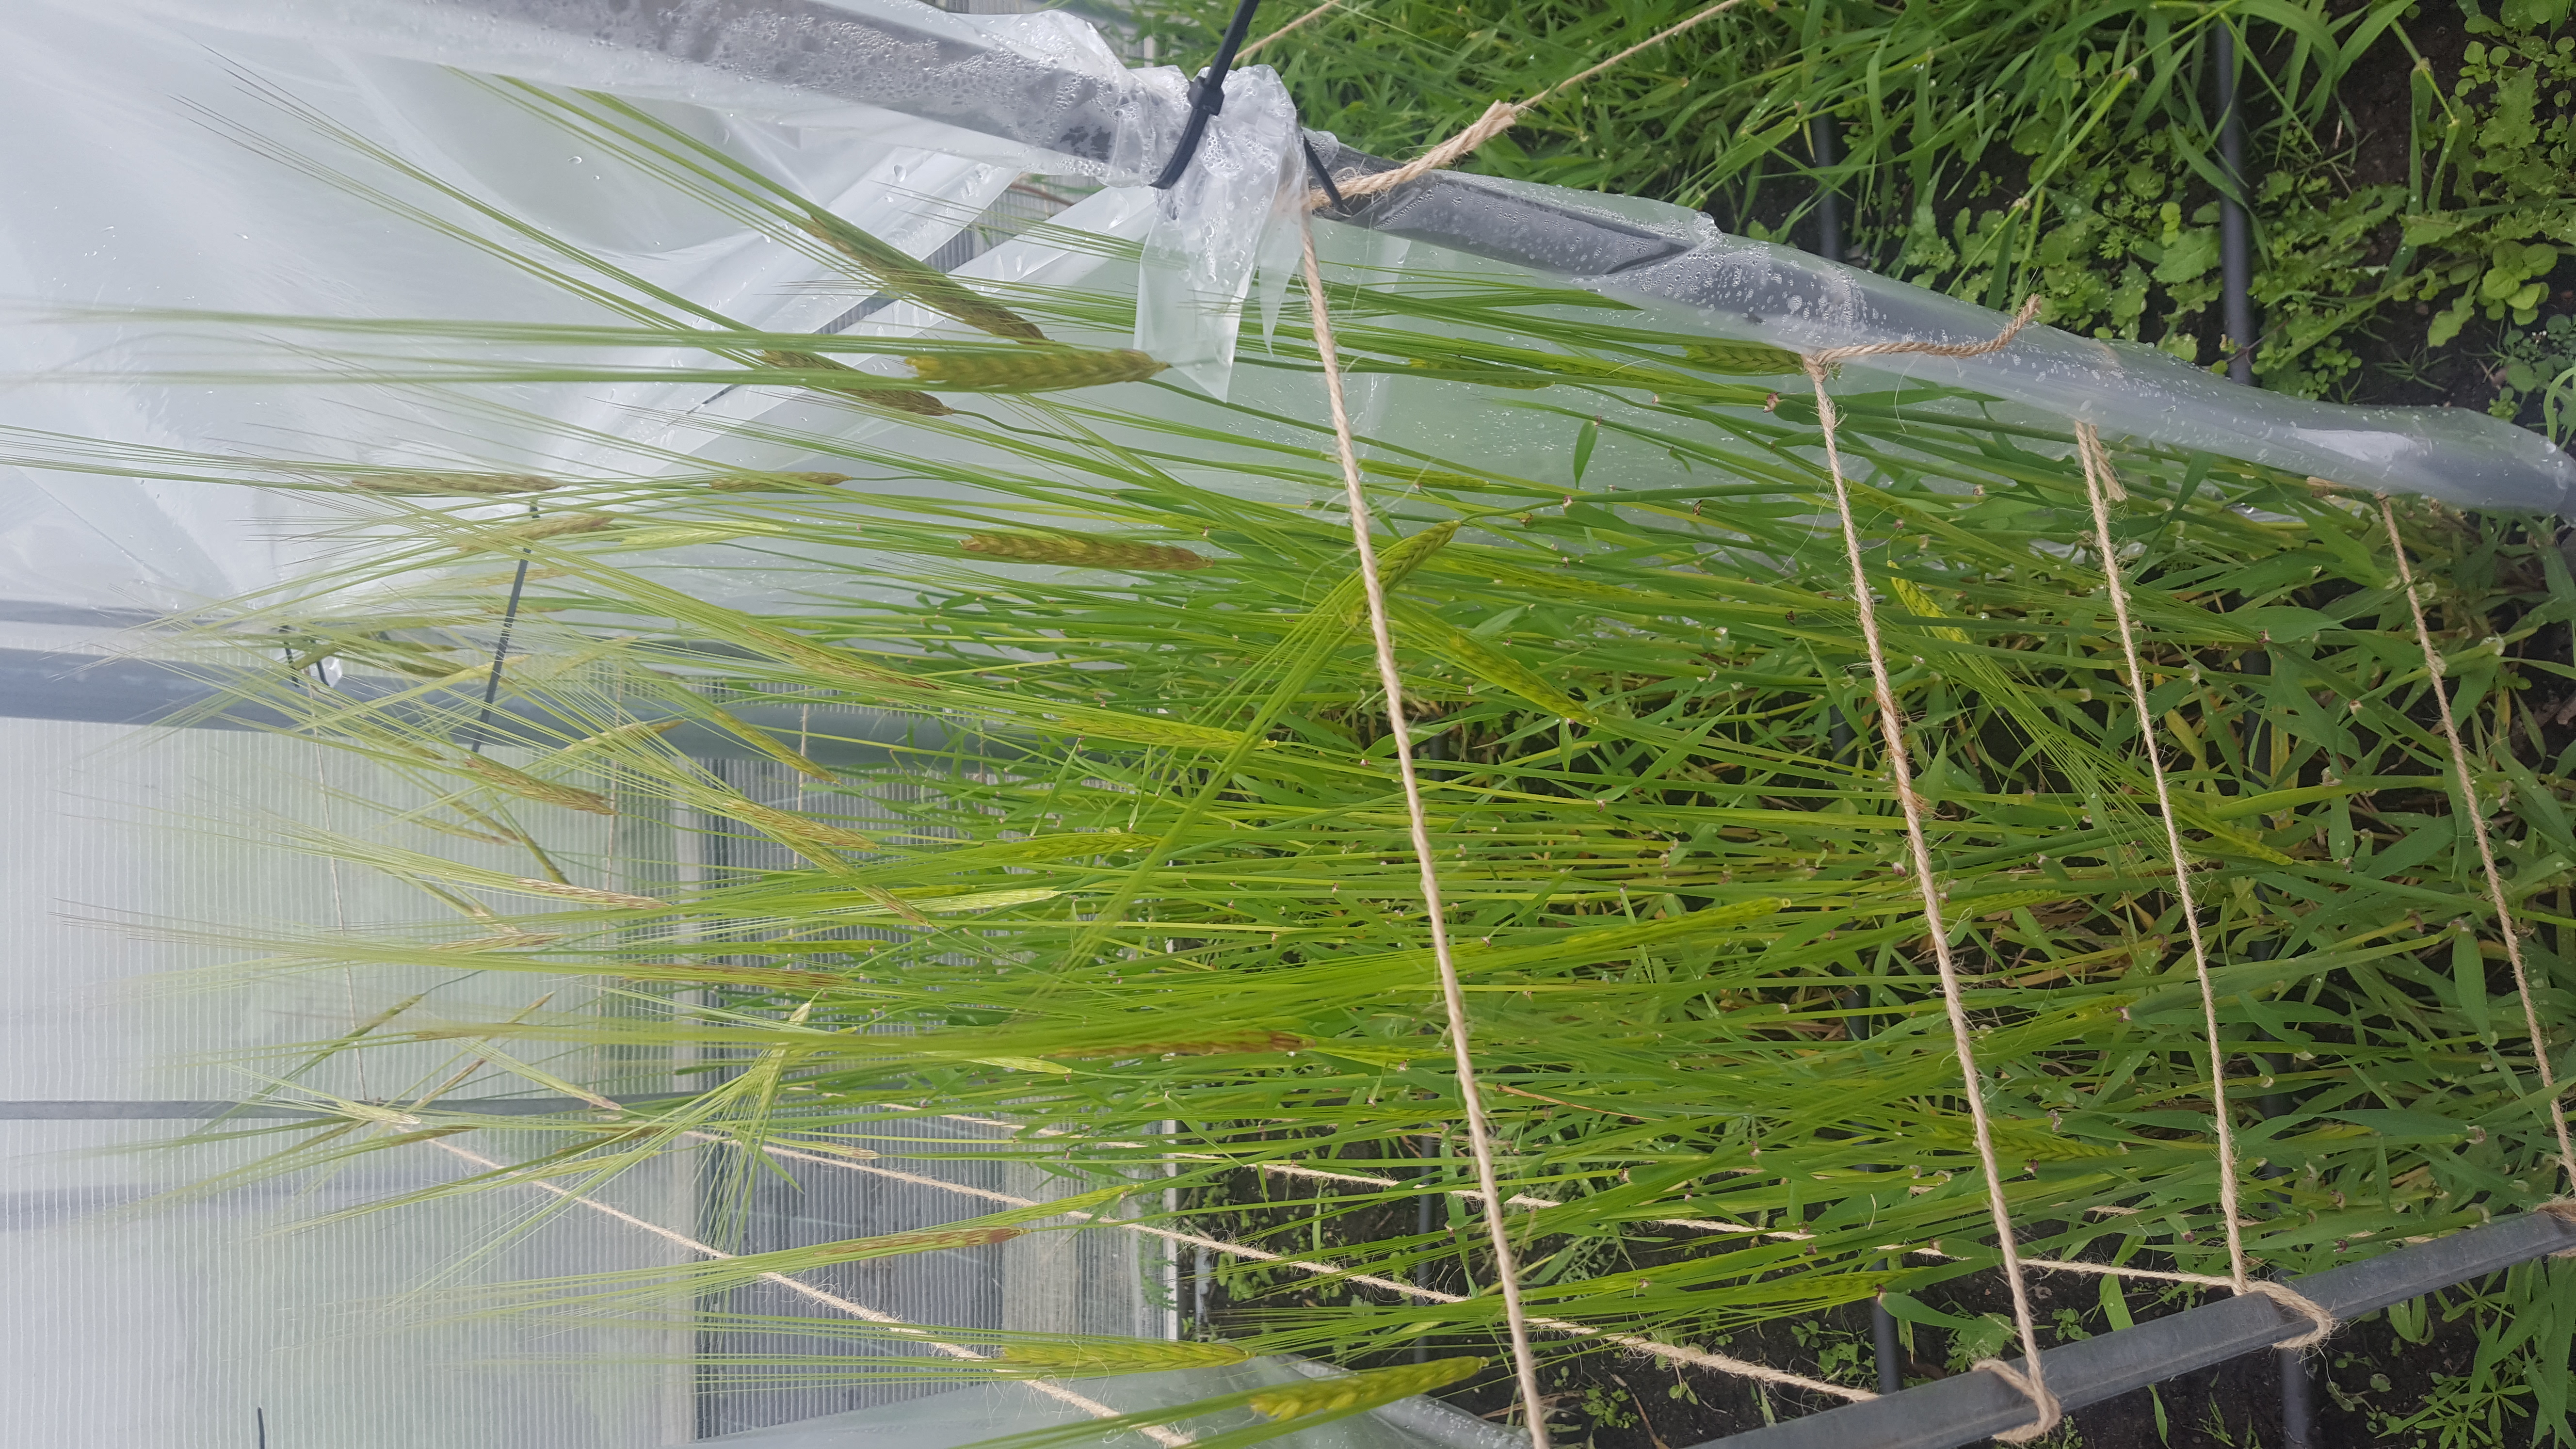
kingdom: Plantae
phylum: Tracheophyta
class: Liliopsida
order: Poales
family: Poaceae
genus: Hordeum
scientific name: Hordeum spontaneum
